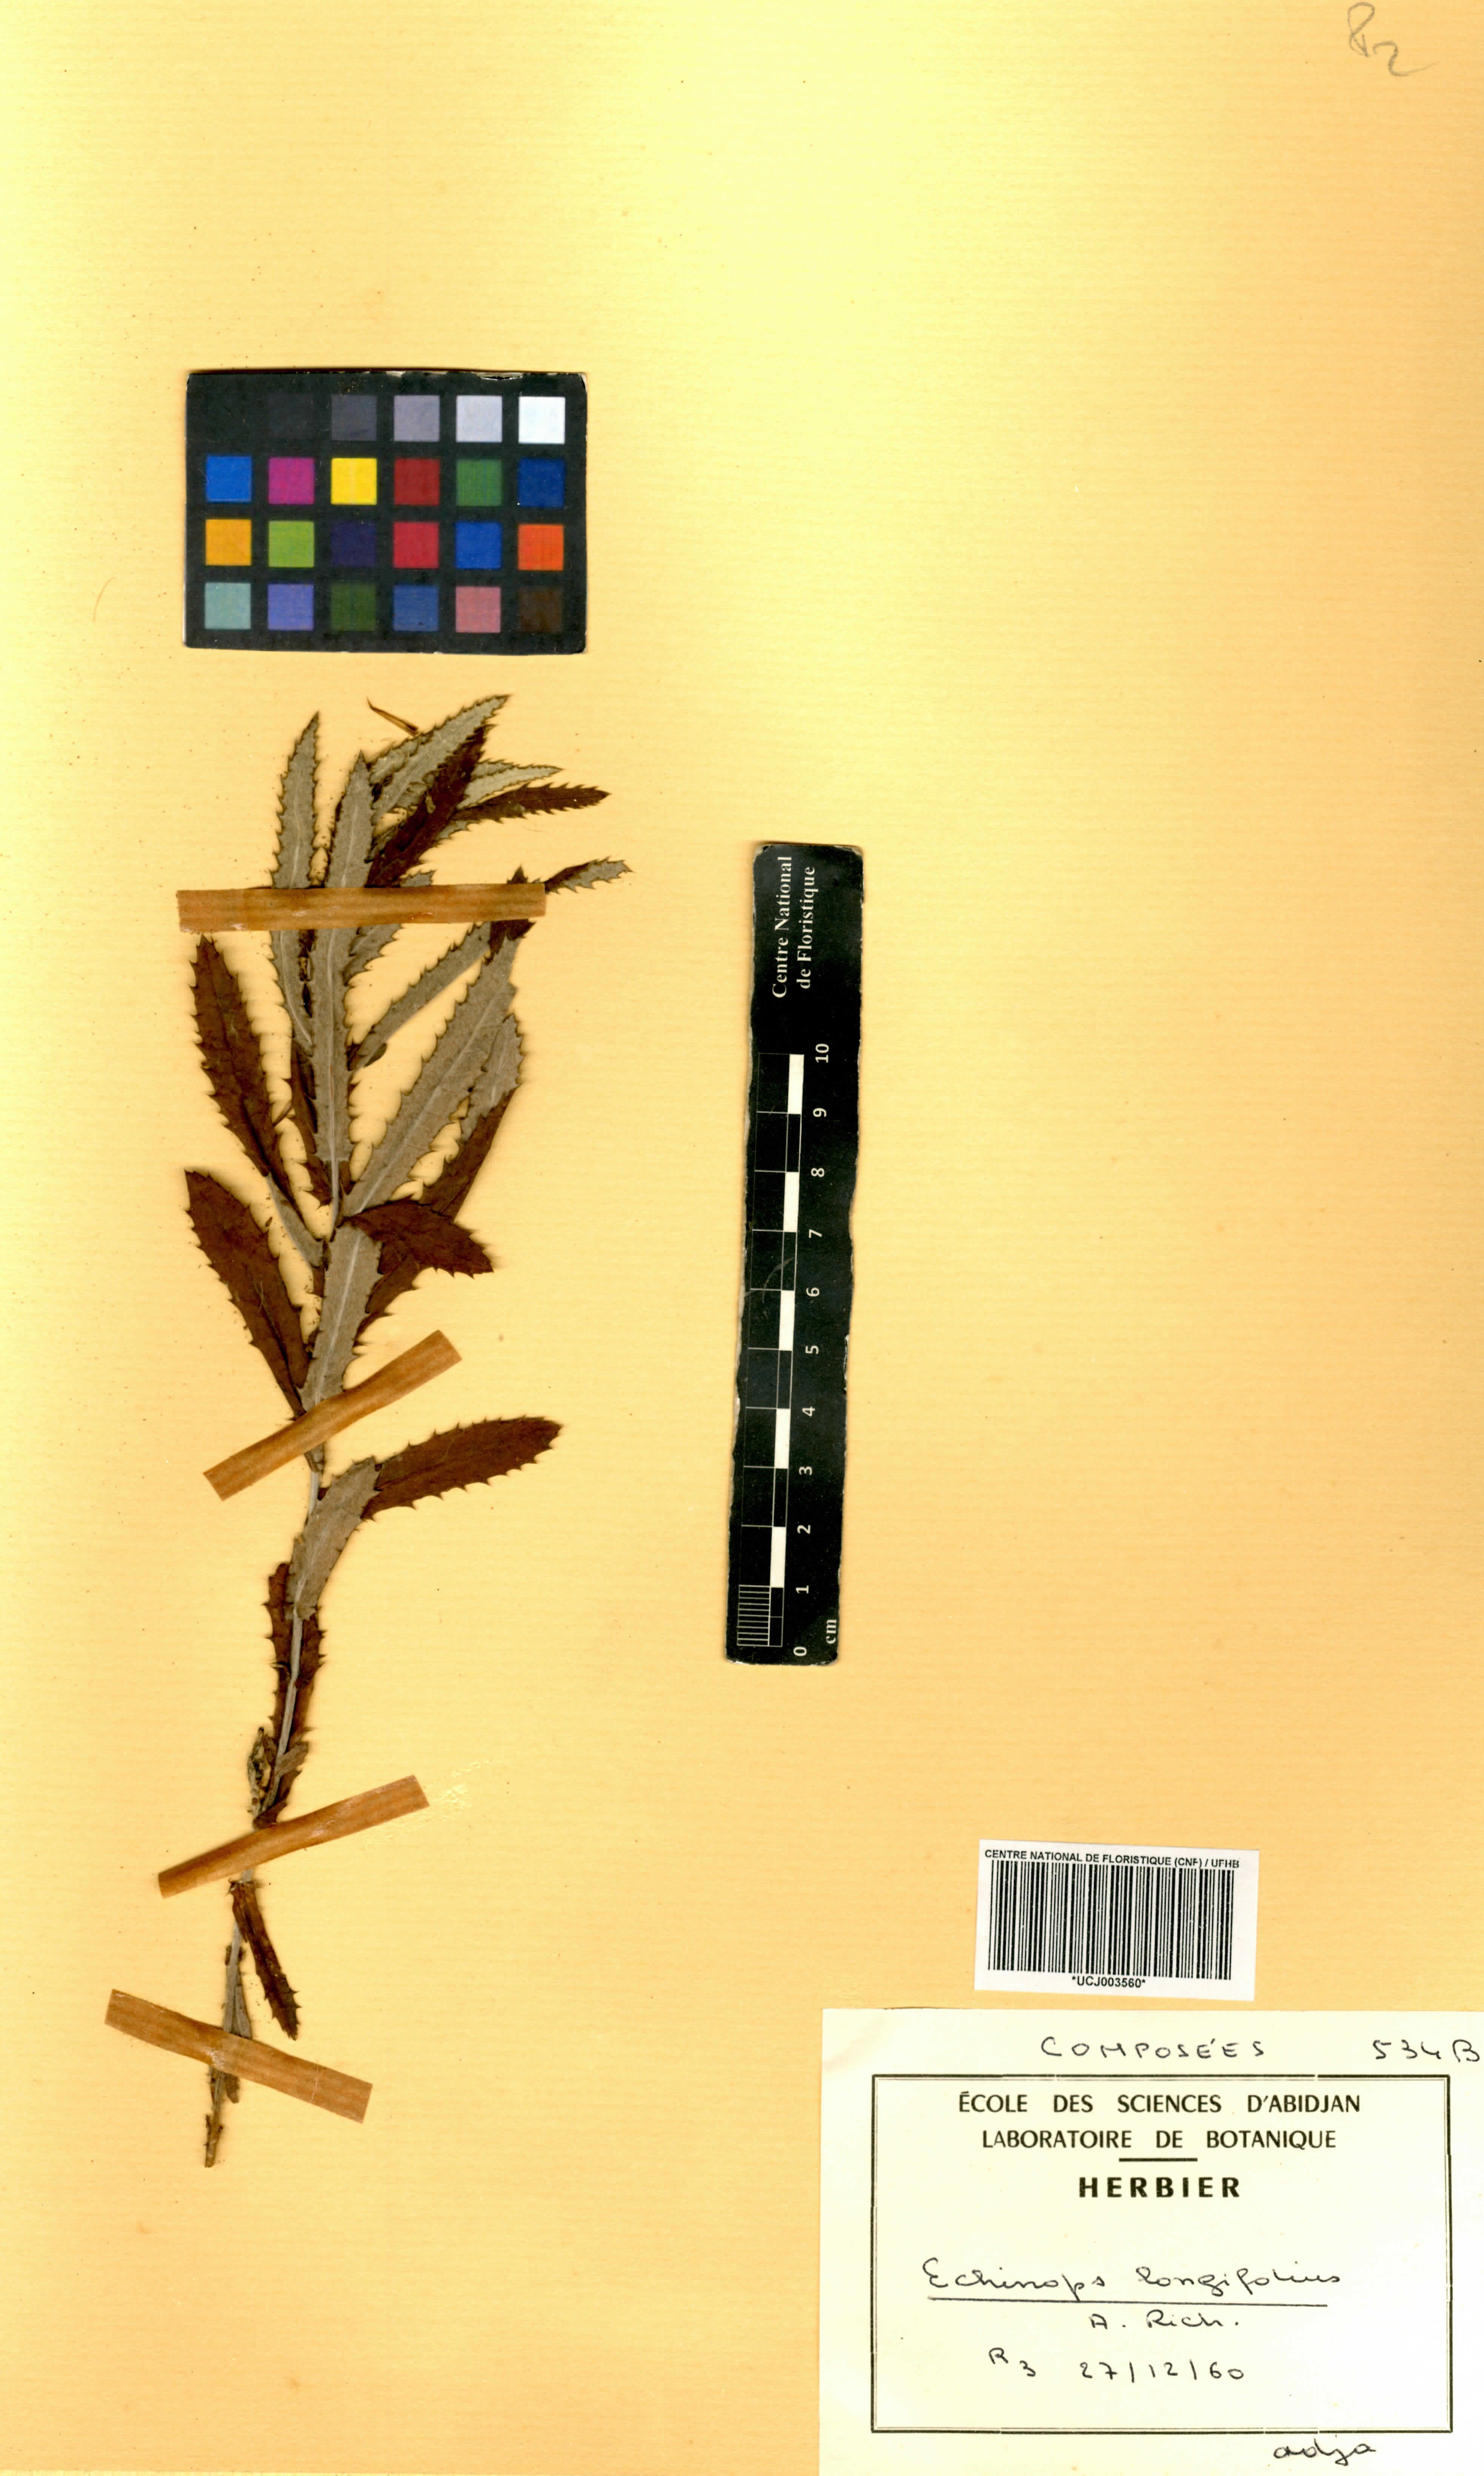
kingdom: Plantae
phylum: Tracheophyta
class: Magnoliopsida
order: Asterales
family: Asteraceae
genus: Echinops
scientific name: Echinops longifolius
